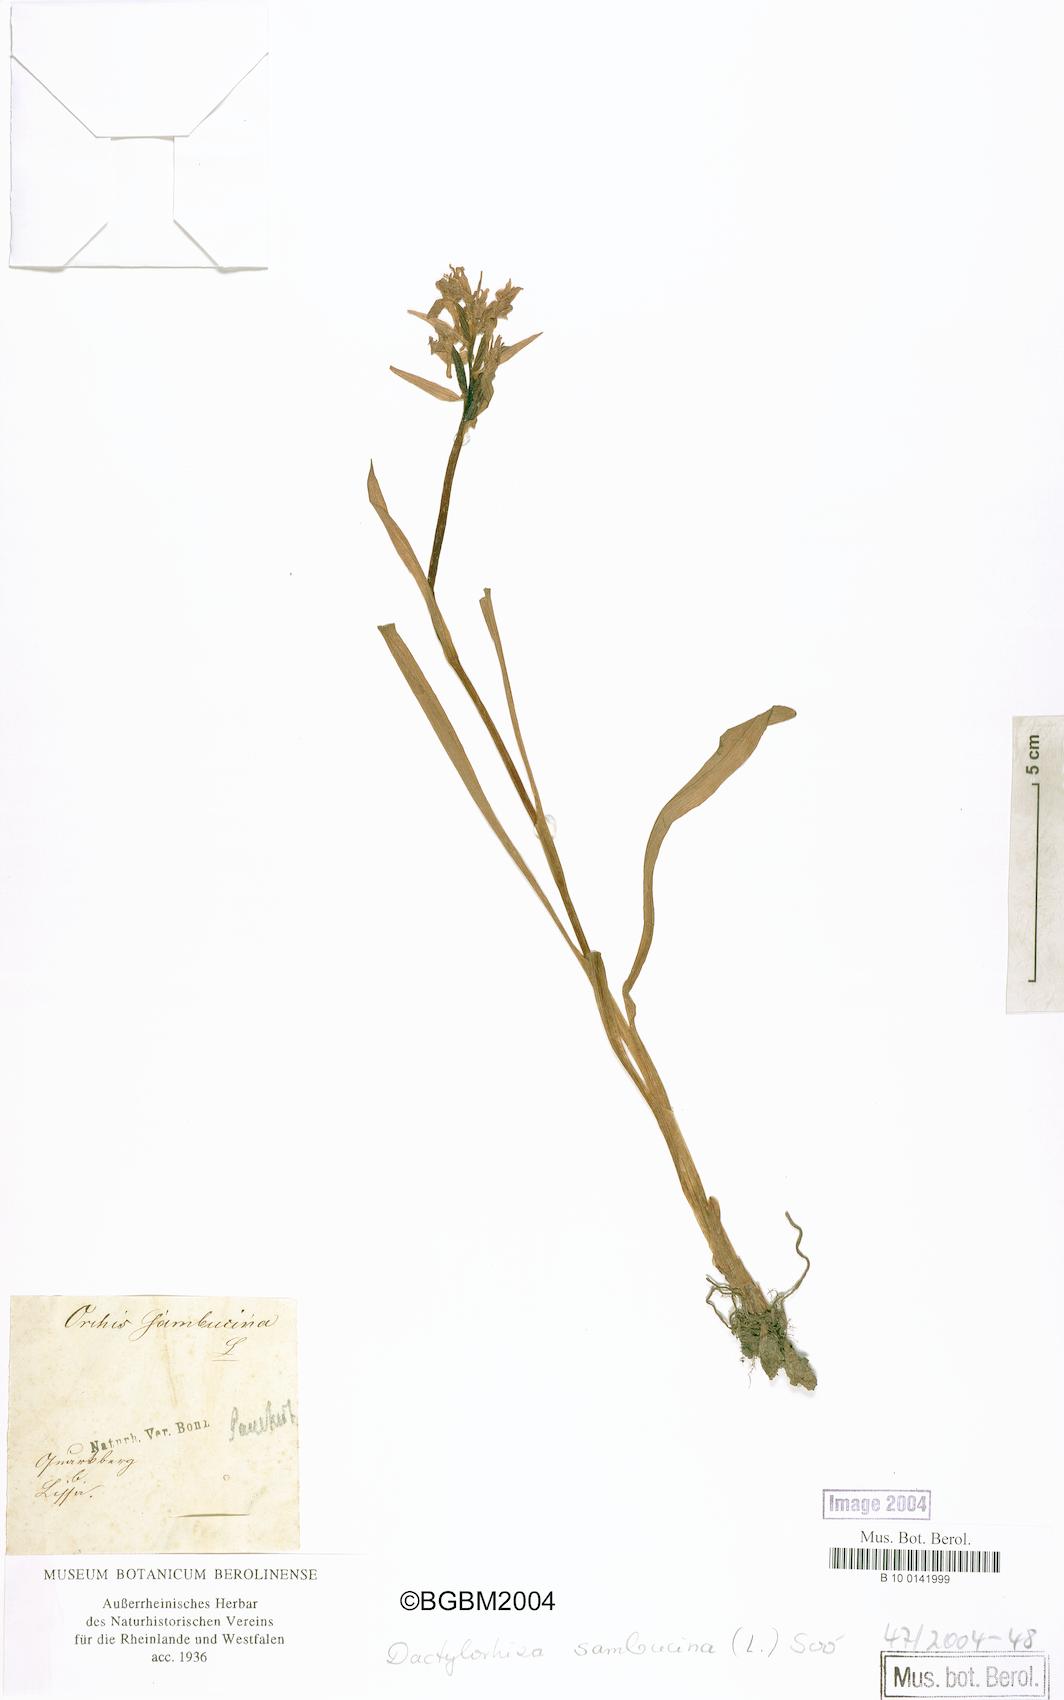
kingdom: Plantae
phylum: Tracheophyta
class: Liliopsida
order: Asparagales
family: Orchidaceae
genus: Dactylorhiza
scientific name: Dactylorhiza sambucina
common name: Elder-flowered orchid
